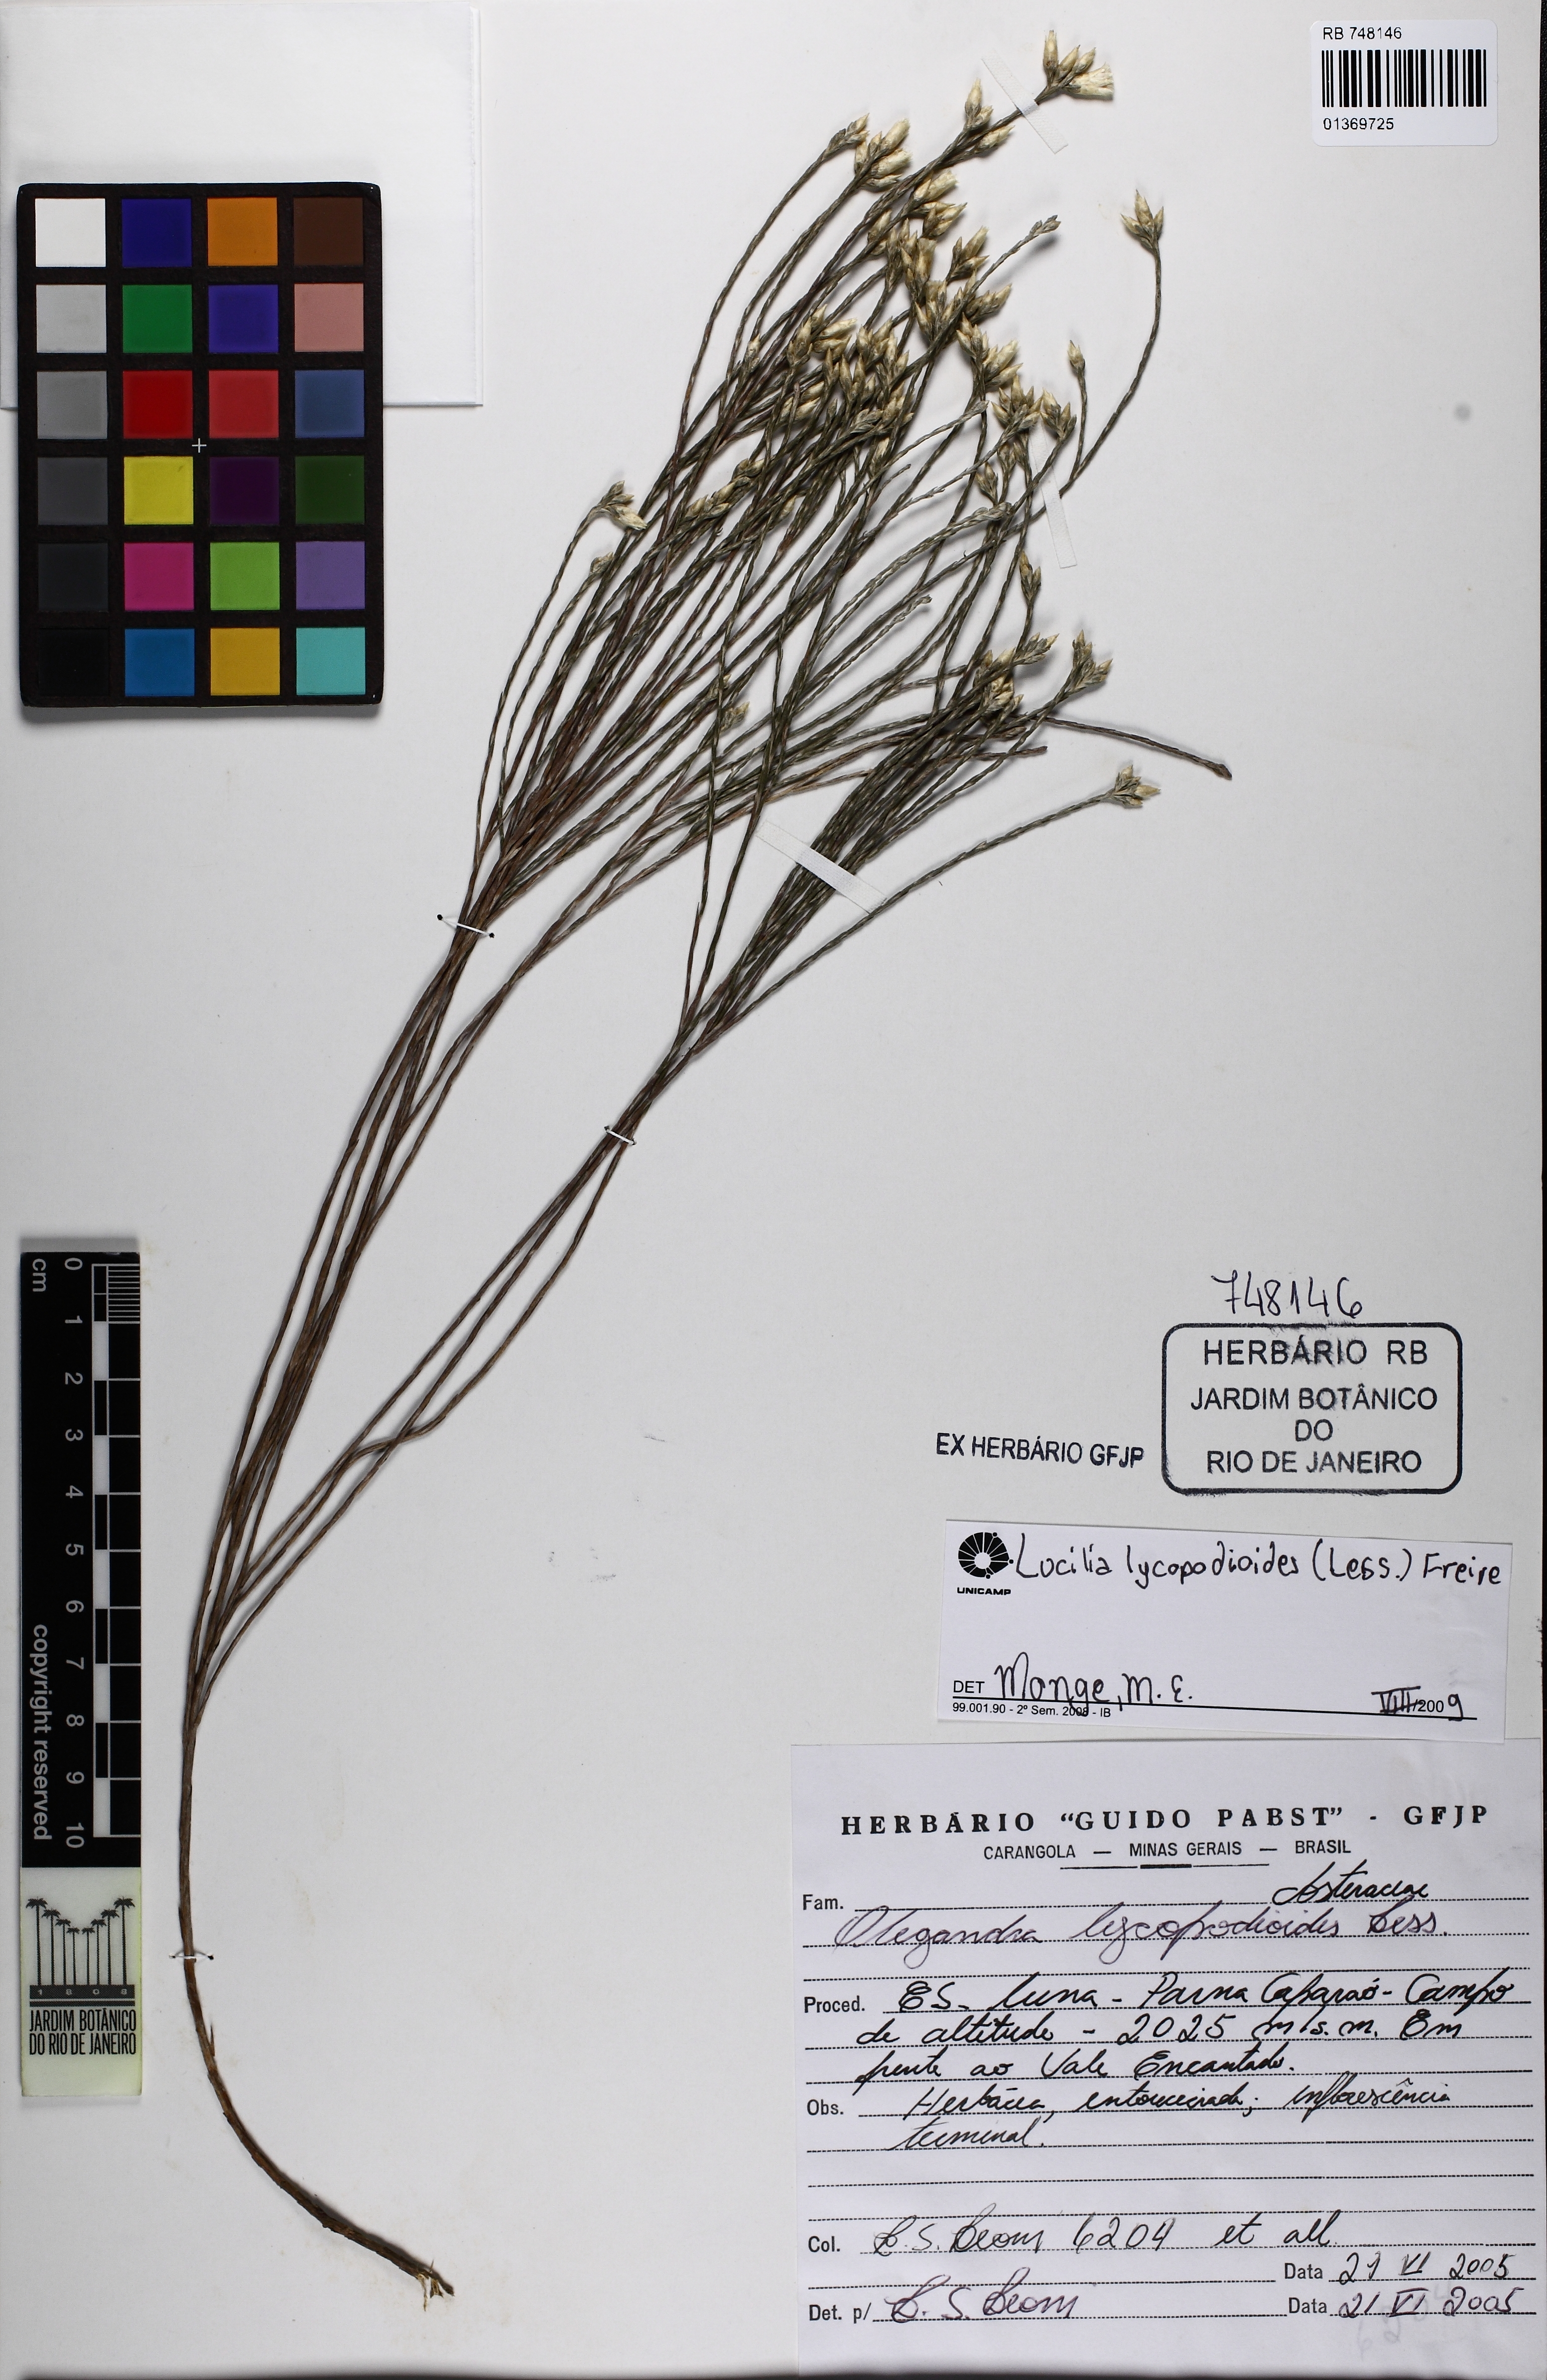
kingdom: Plantae
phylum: Tracheophyta
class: Magnoliopsida
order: Asterales
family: Asteraceae
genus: Lucilia
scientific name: Lucilia lycopodioides
